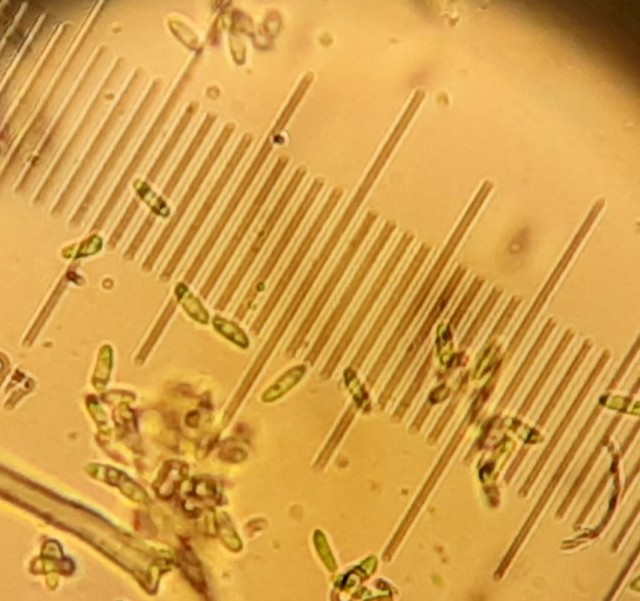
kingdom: Fungi
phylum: Ascomycota
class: Sordariomycetes
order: Hypocreales
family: Nectriaceae
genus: Volutella
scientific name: Volutella arundinis
